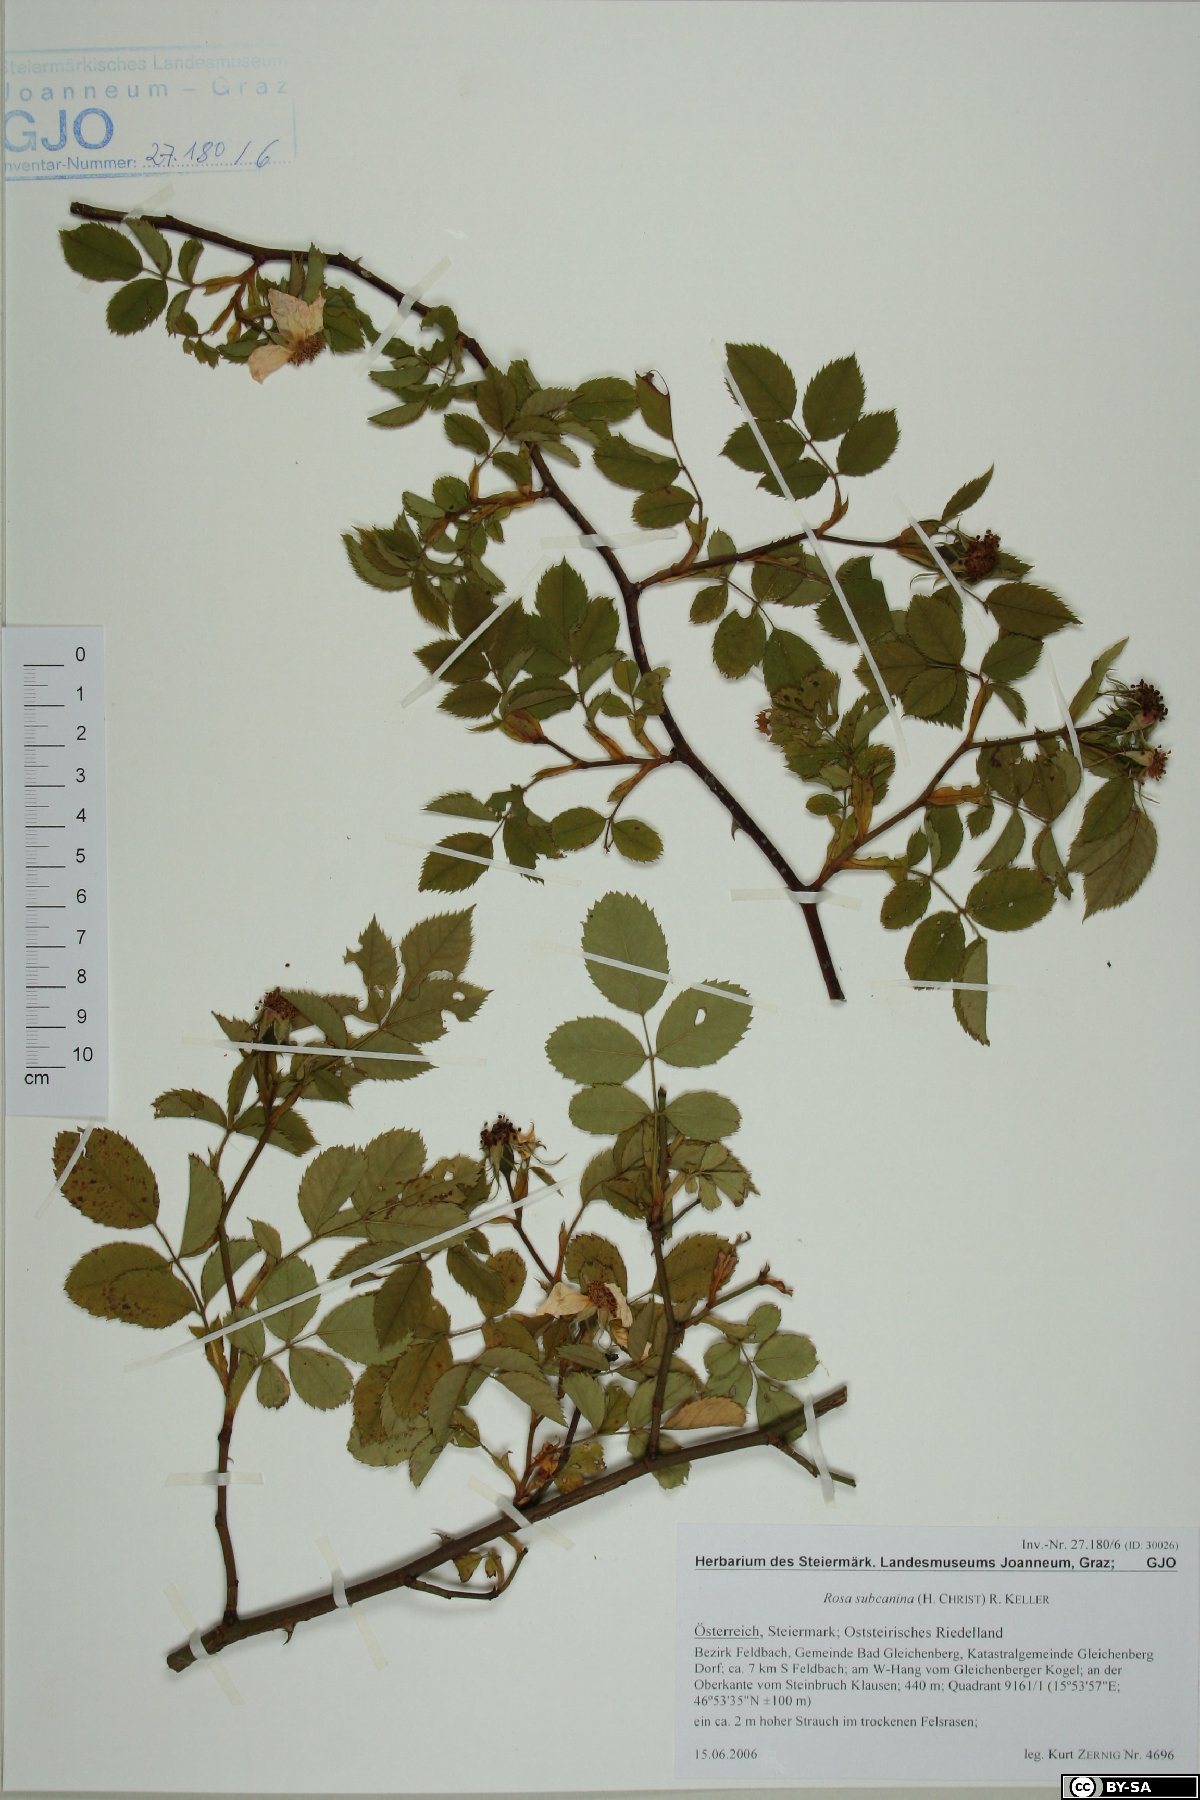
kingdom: Plantae
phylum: Tracheophyta
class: Magnoliopsida
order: Rosales
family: Rosaceae
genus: Rosa
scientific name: Rosa subcanina
